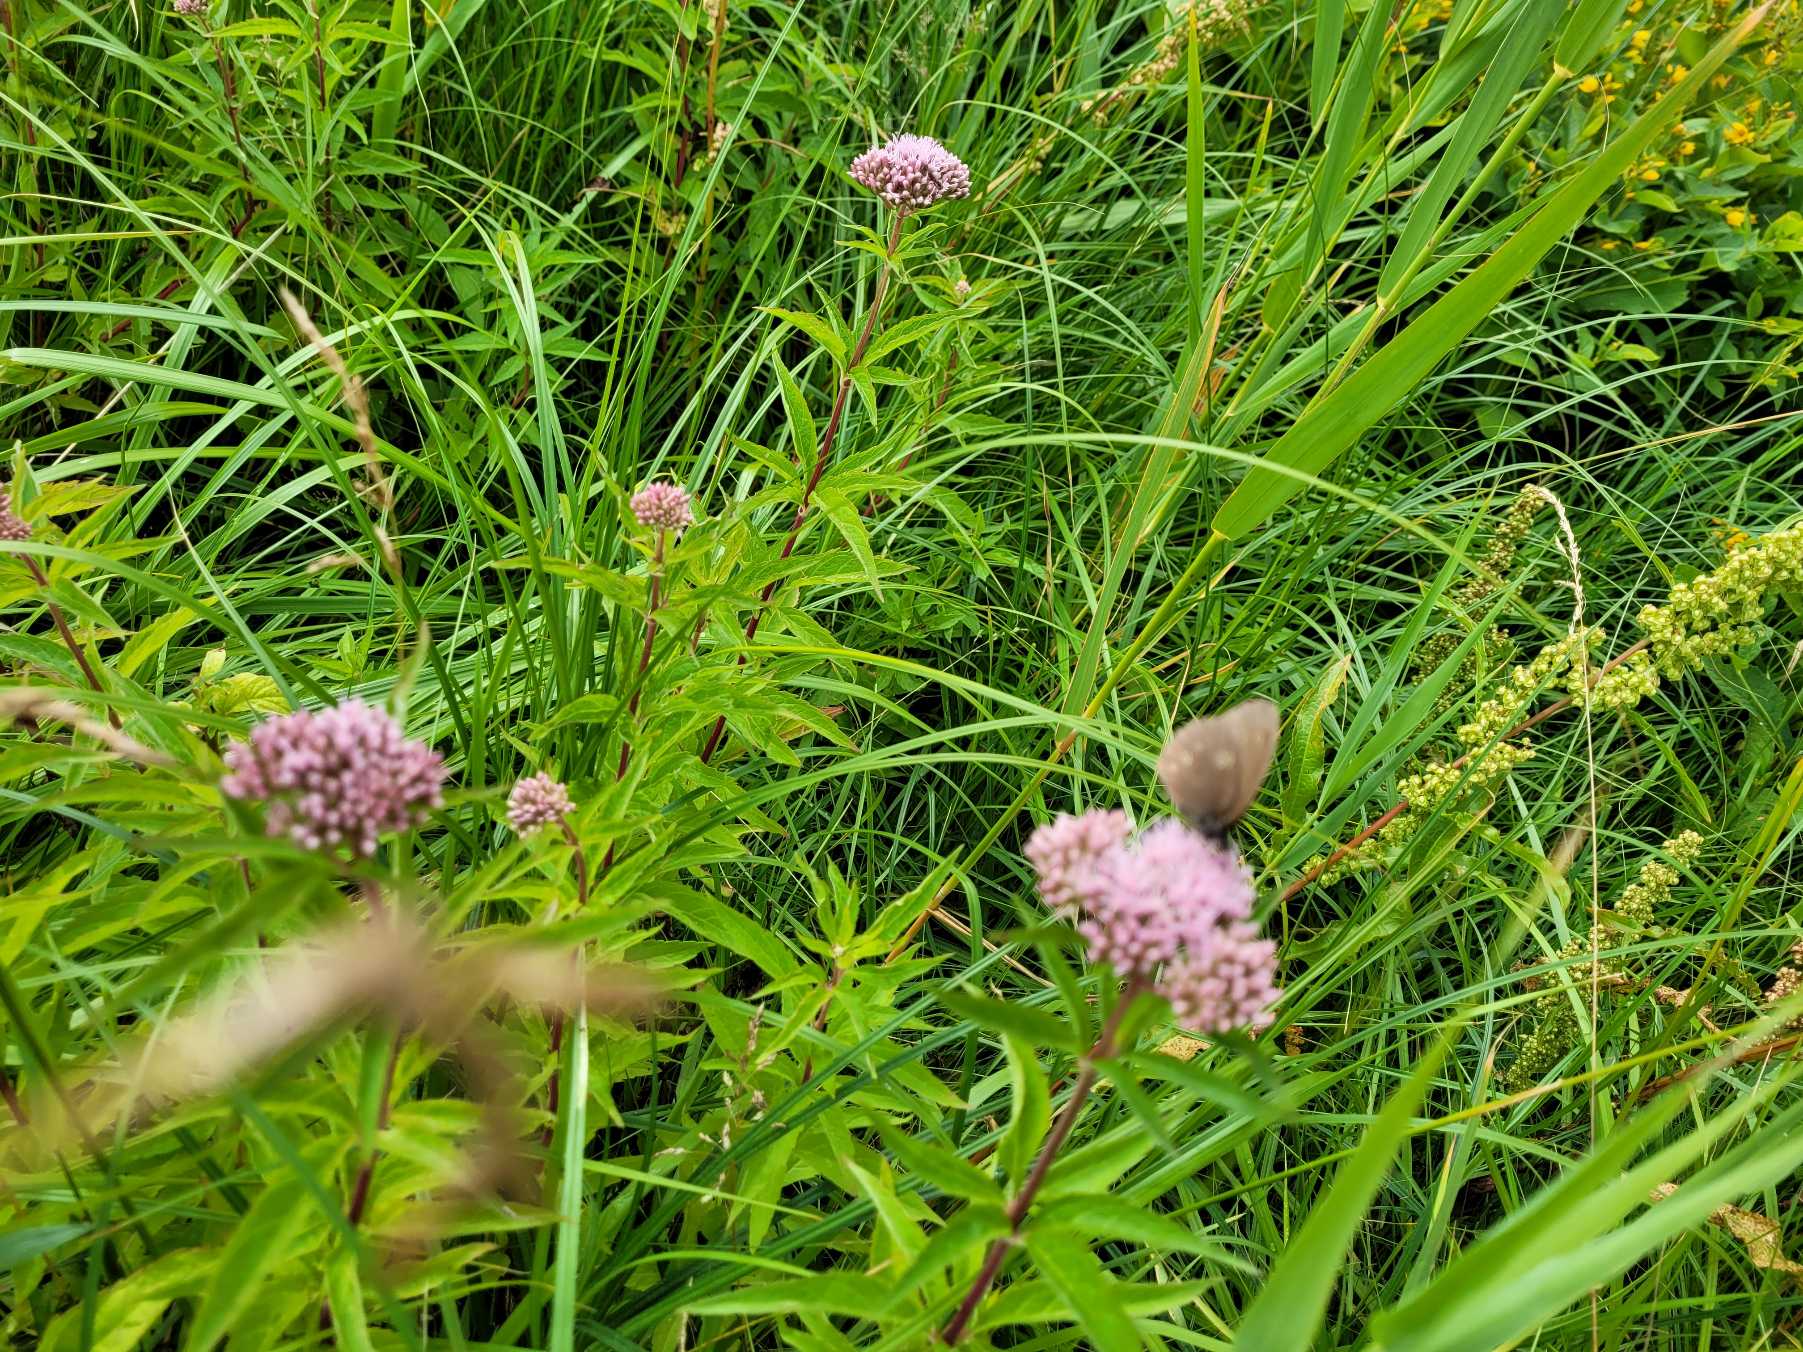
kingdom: Animalia
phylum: Arthropoda
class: Insecta
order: Lepidoptera
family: Nymphalidae
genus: Aphantopus
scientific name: Aphantopus hyperantus
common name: Engrandøje
